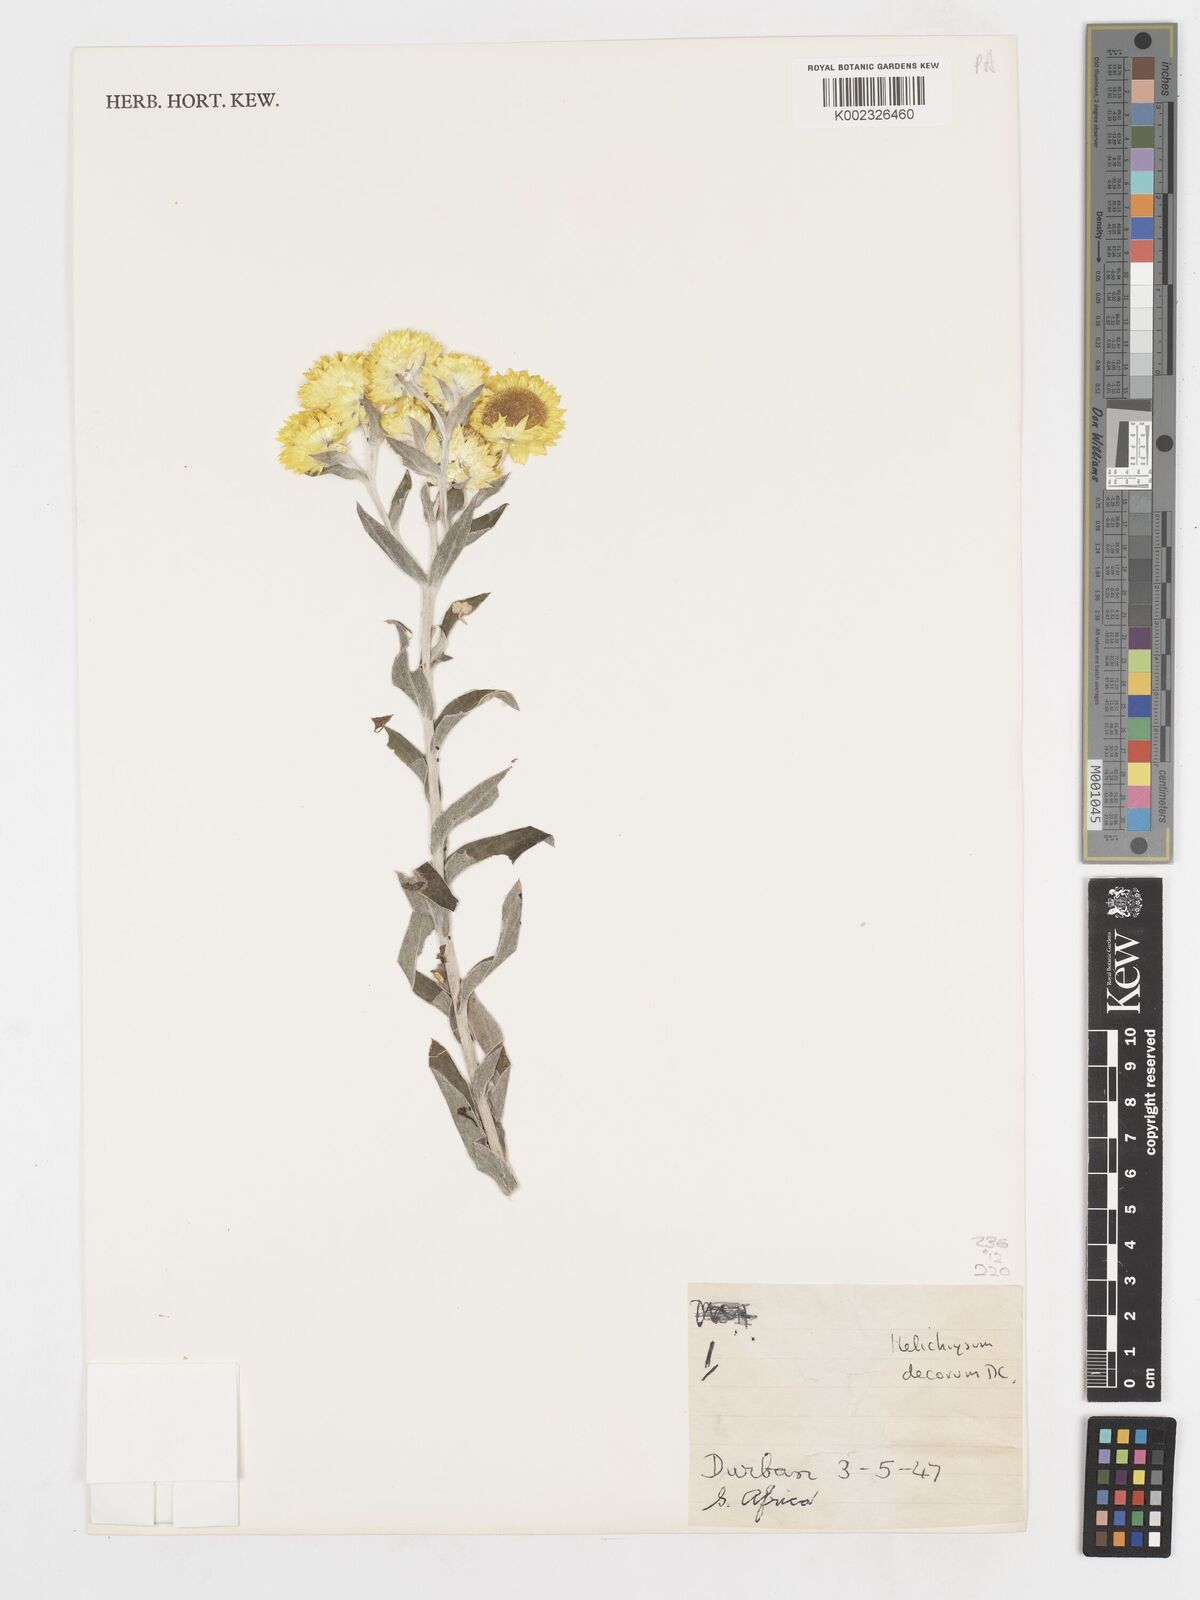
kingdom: Plantae
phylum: Tracheophyta
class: Magnoliopsida
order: Asterales
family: Asteraceae
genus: Helichrysum
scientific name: Helichrysum decorum
